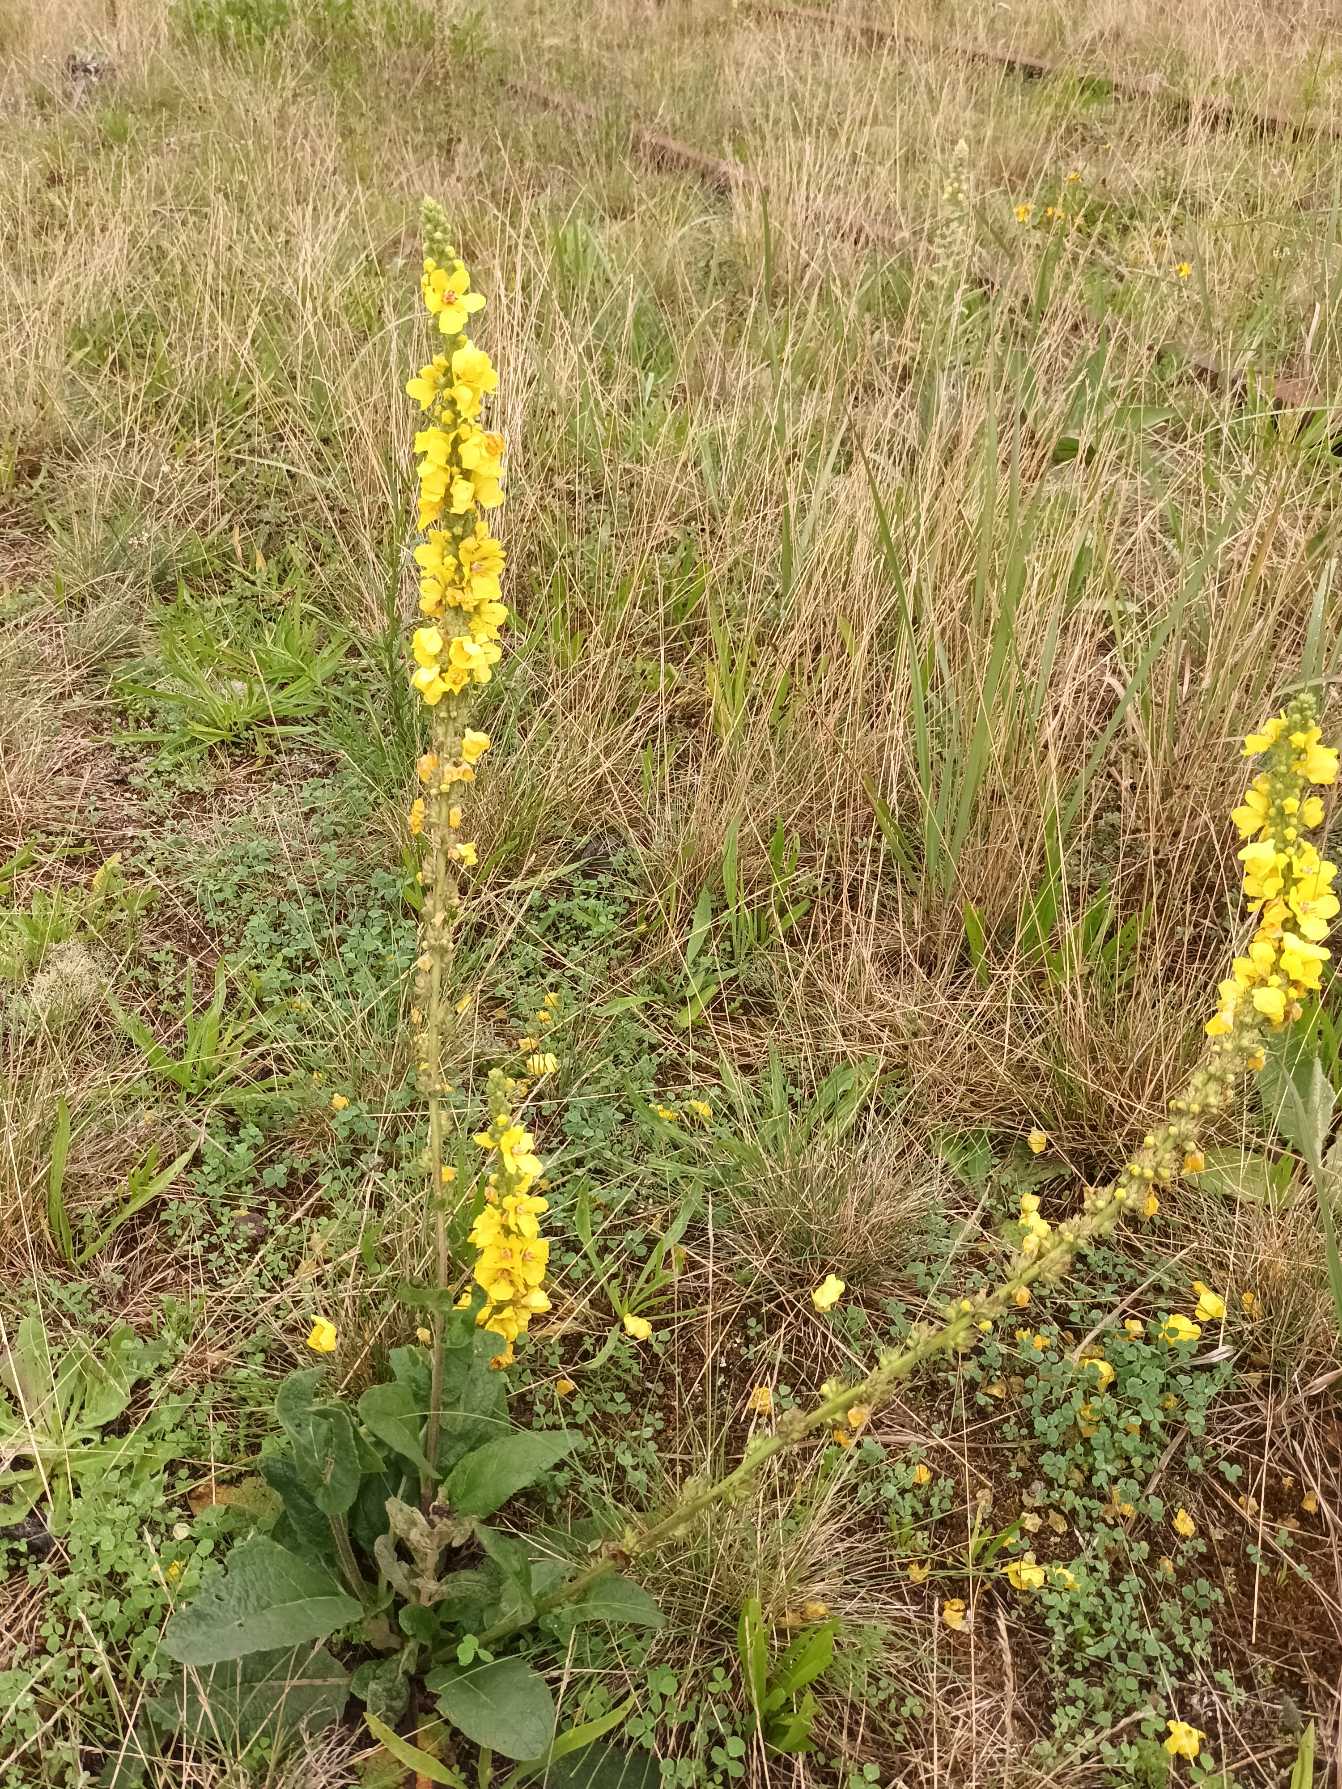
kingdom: Plantae
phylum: Tracheophyta
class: Magnoliopsida
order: Lamiales
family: Scrophulariaceae
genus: Verbascum
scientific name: Verbascum nigrum
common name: Mørk kongelys
